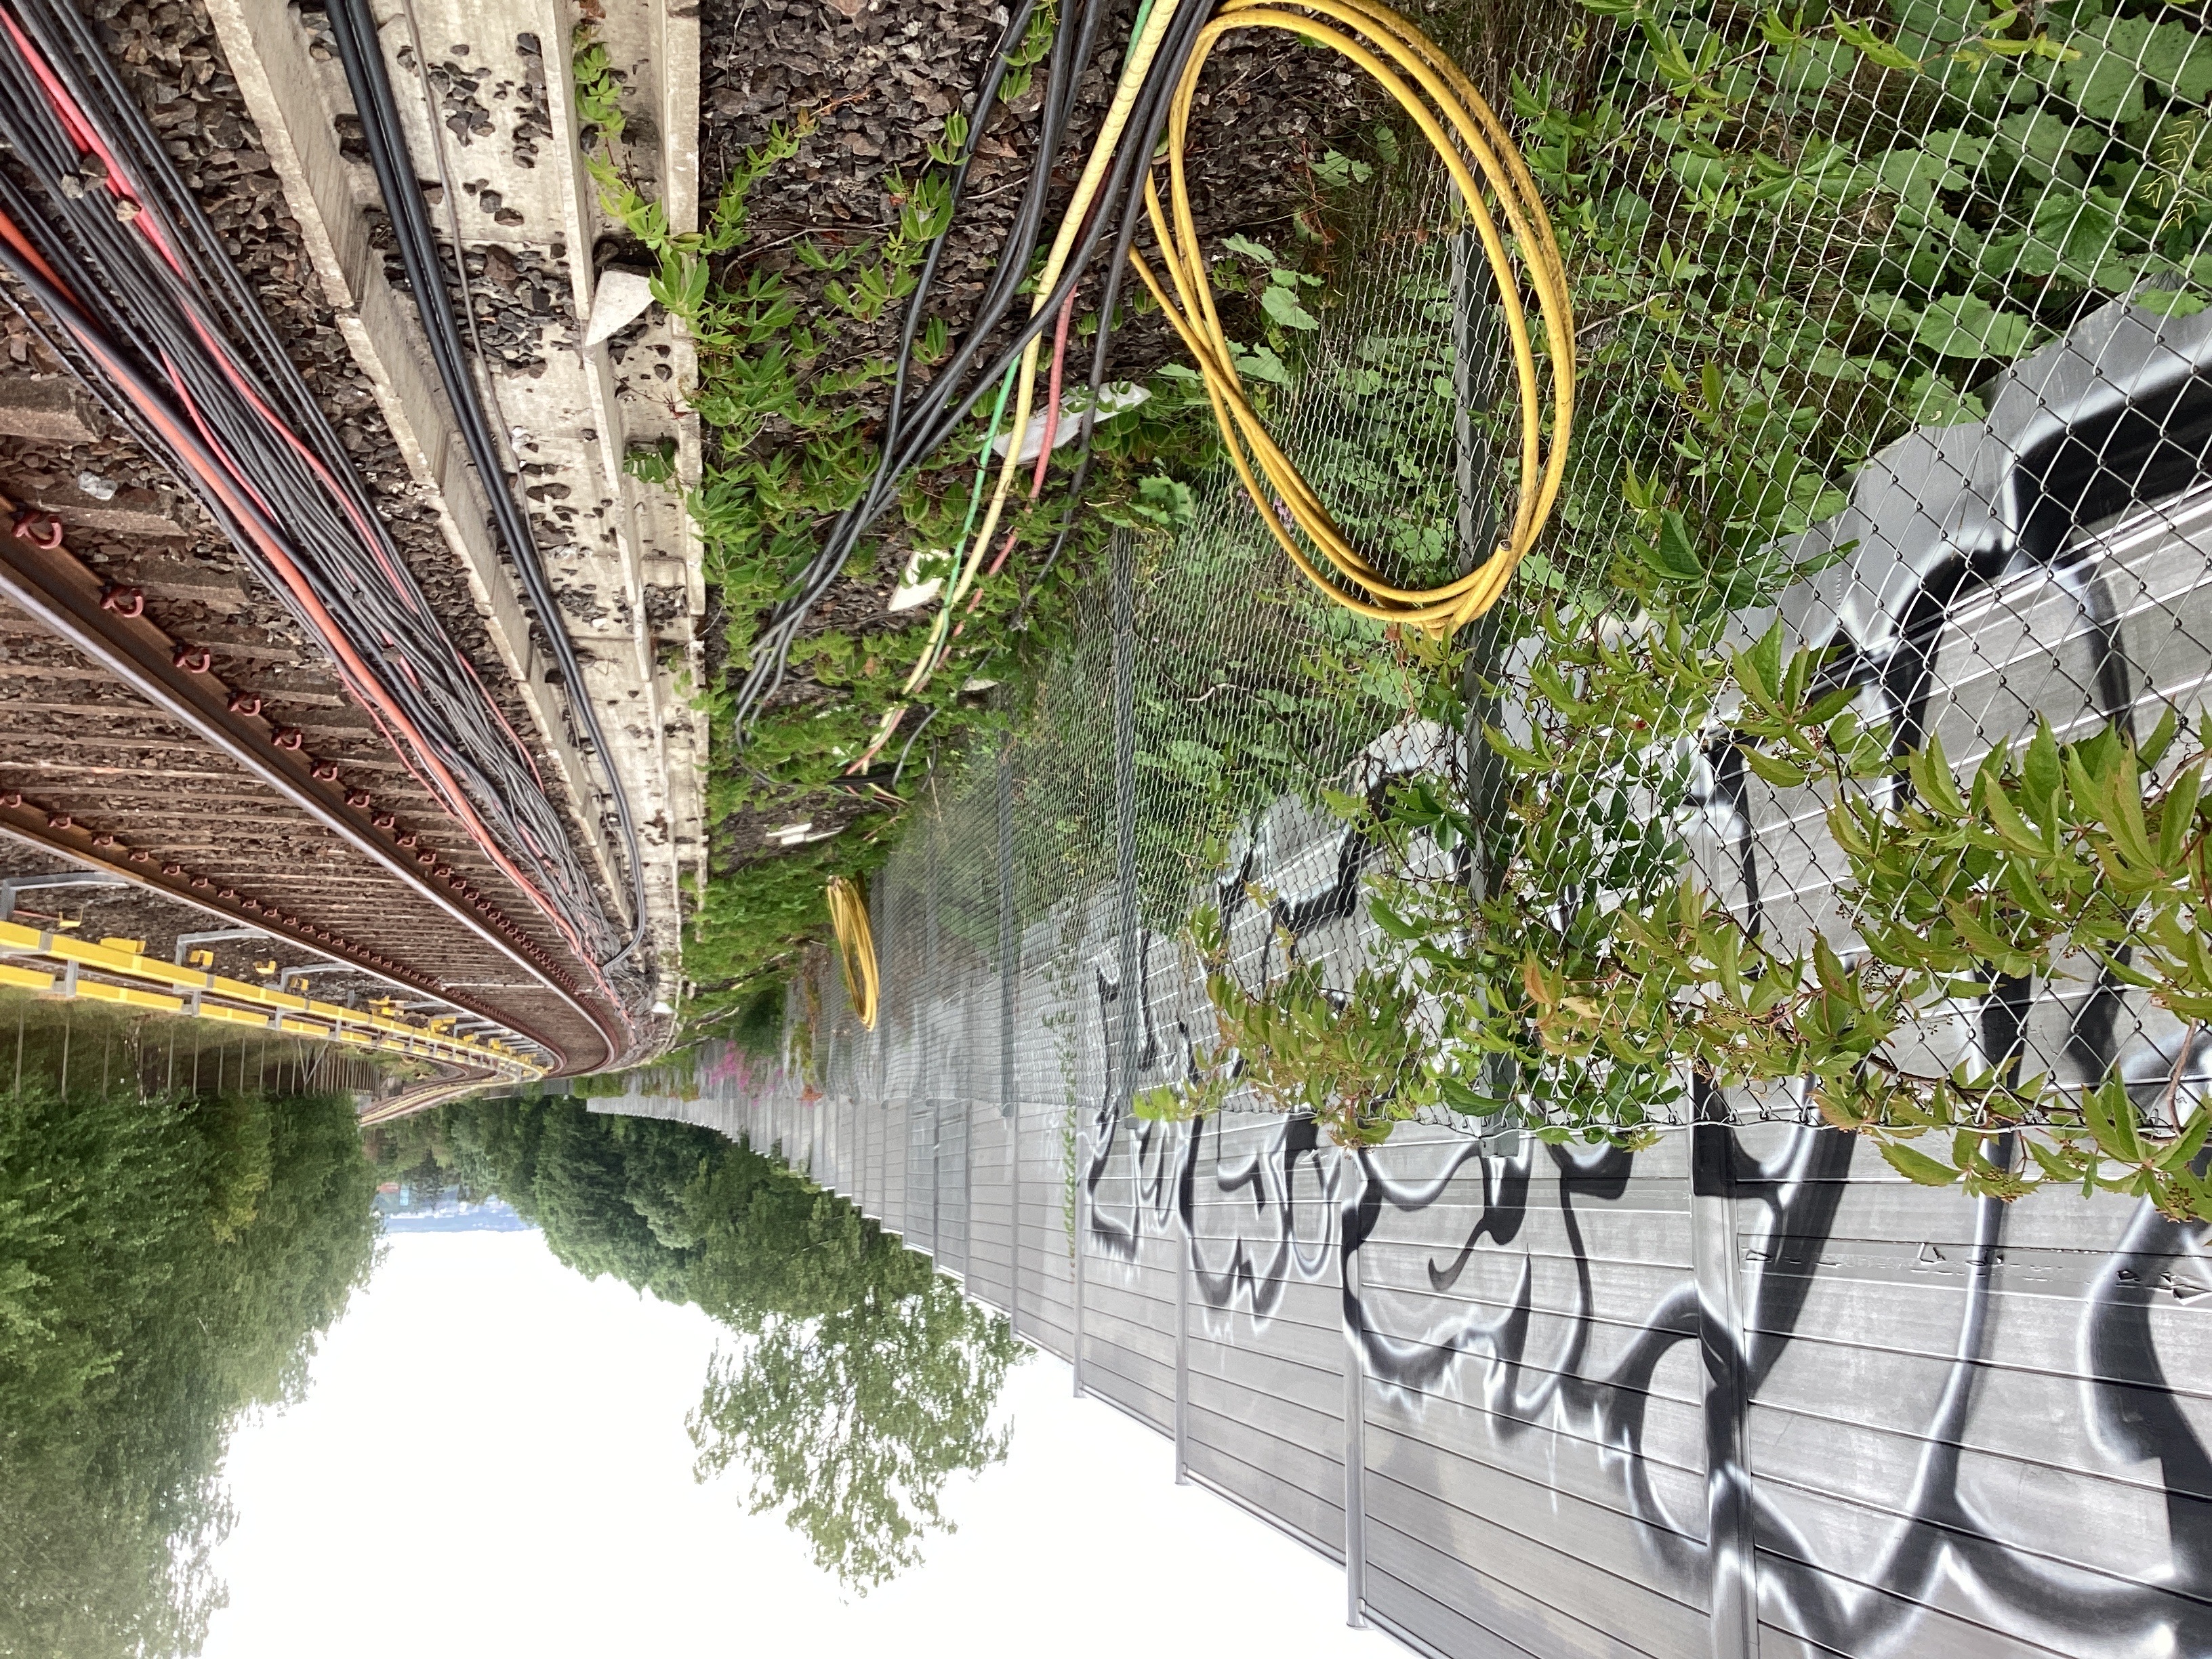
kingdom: Plantae
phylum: Tracheophyta
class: Magnoliopsida
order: Vitales
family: Vitaceae
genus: Parthenocissus
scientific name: Parthenocissus quinquefolia
